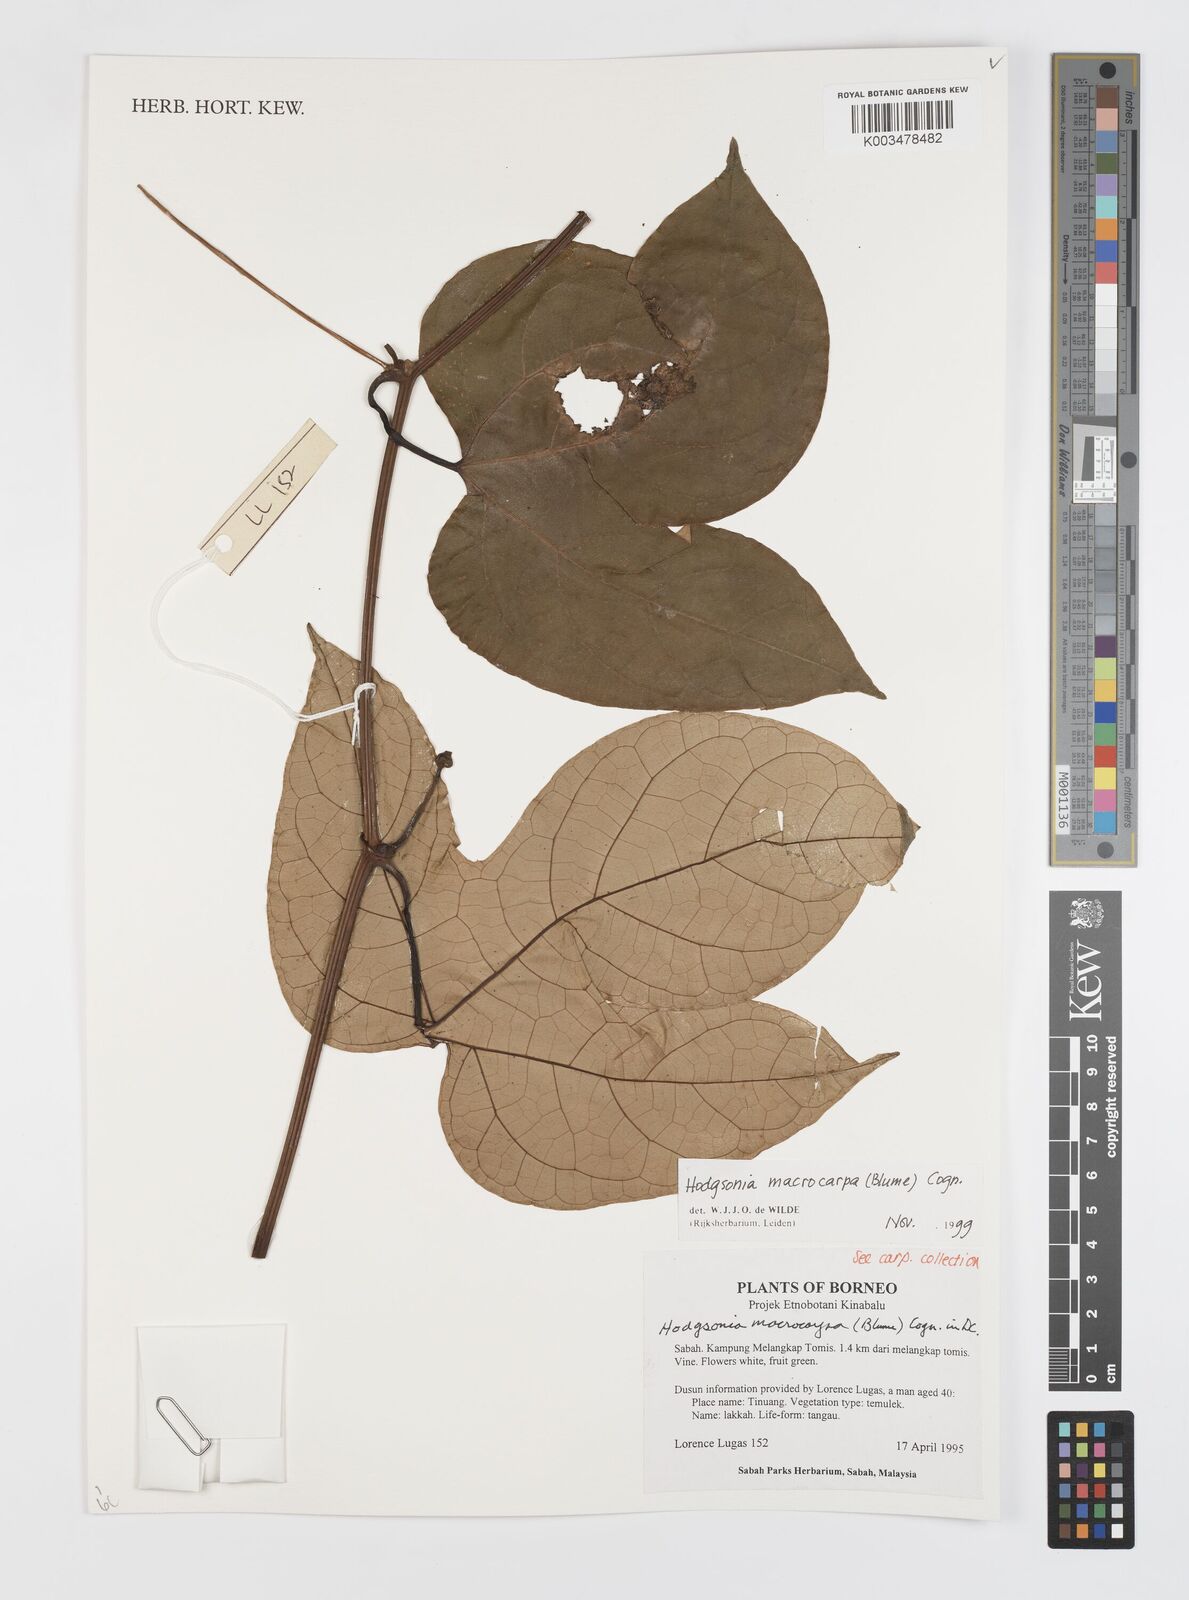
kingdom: Plantae
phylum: Tracheophyta
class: Magnoliopsida
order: Cucurbitales
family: Cucurbitaceae
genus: Hodgsonia
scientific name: Hodgsonia macrocarpa
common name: Chinese lardfruit
